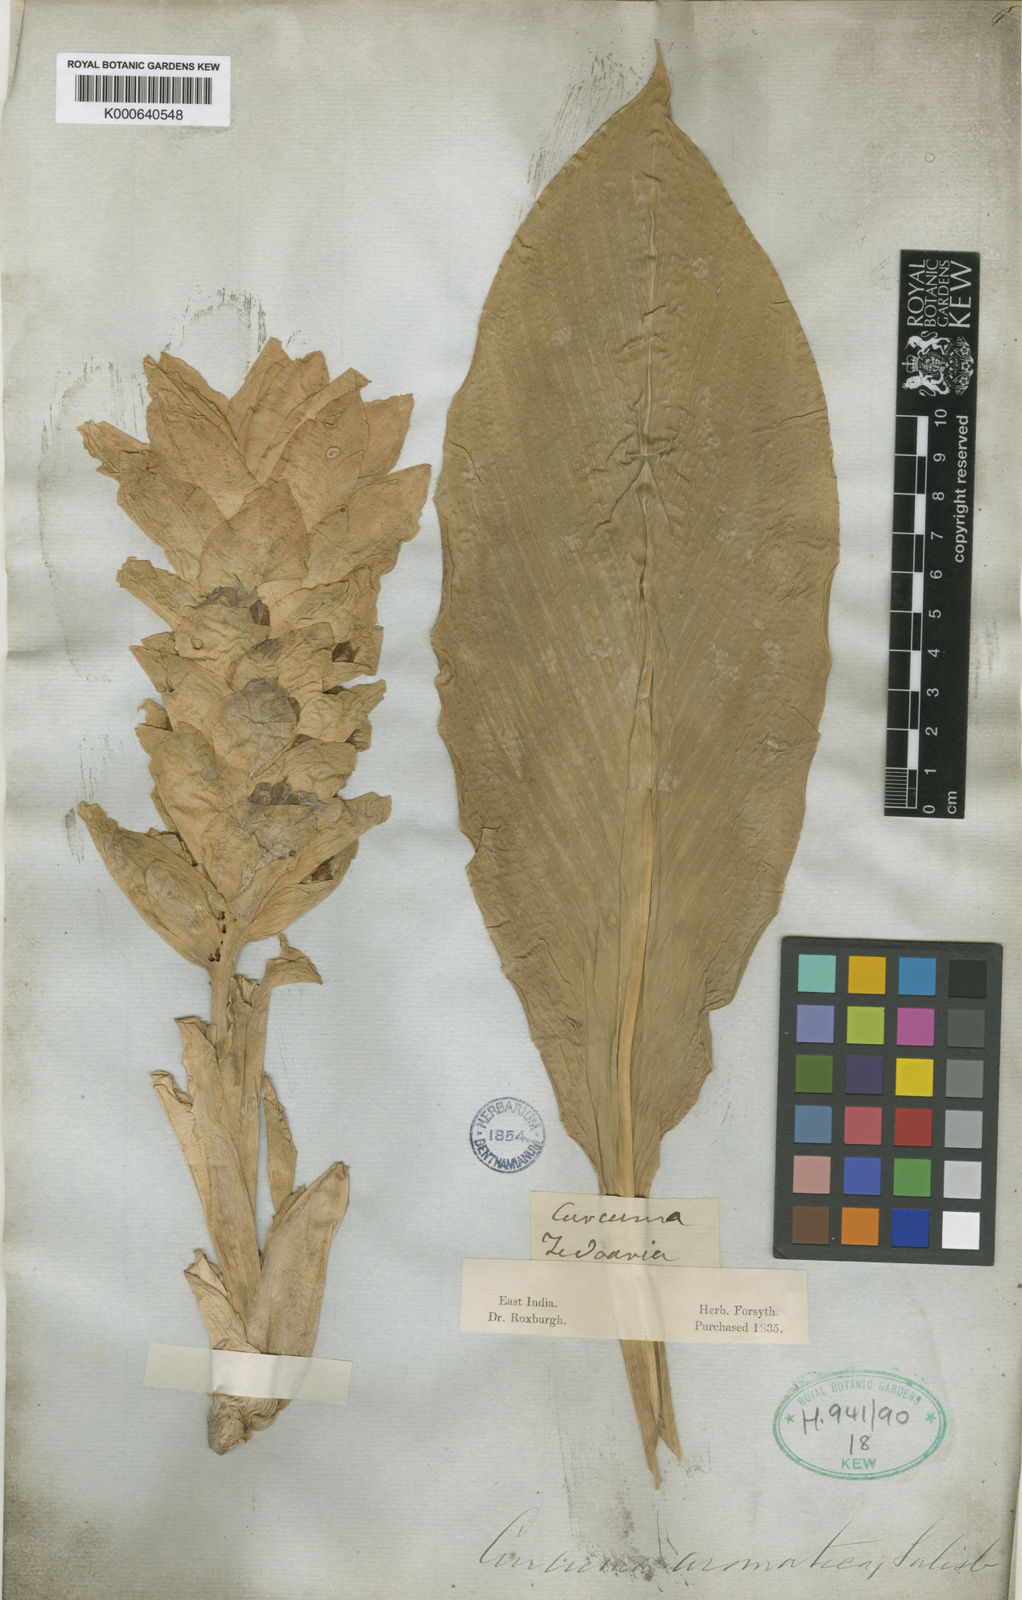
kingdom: Plantae
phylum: Tracheophyta
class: Liliopsida
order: Zingiberales
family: Zingiberaceae
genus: Curcuma
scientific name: Curcuma aromatica
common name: Wild turmeric
